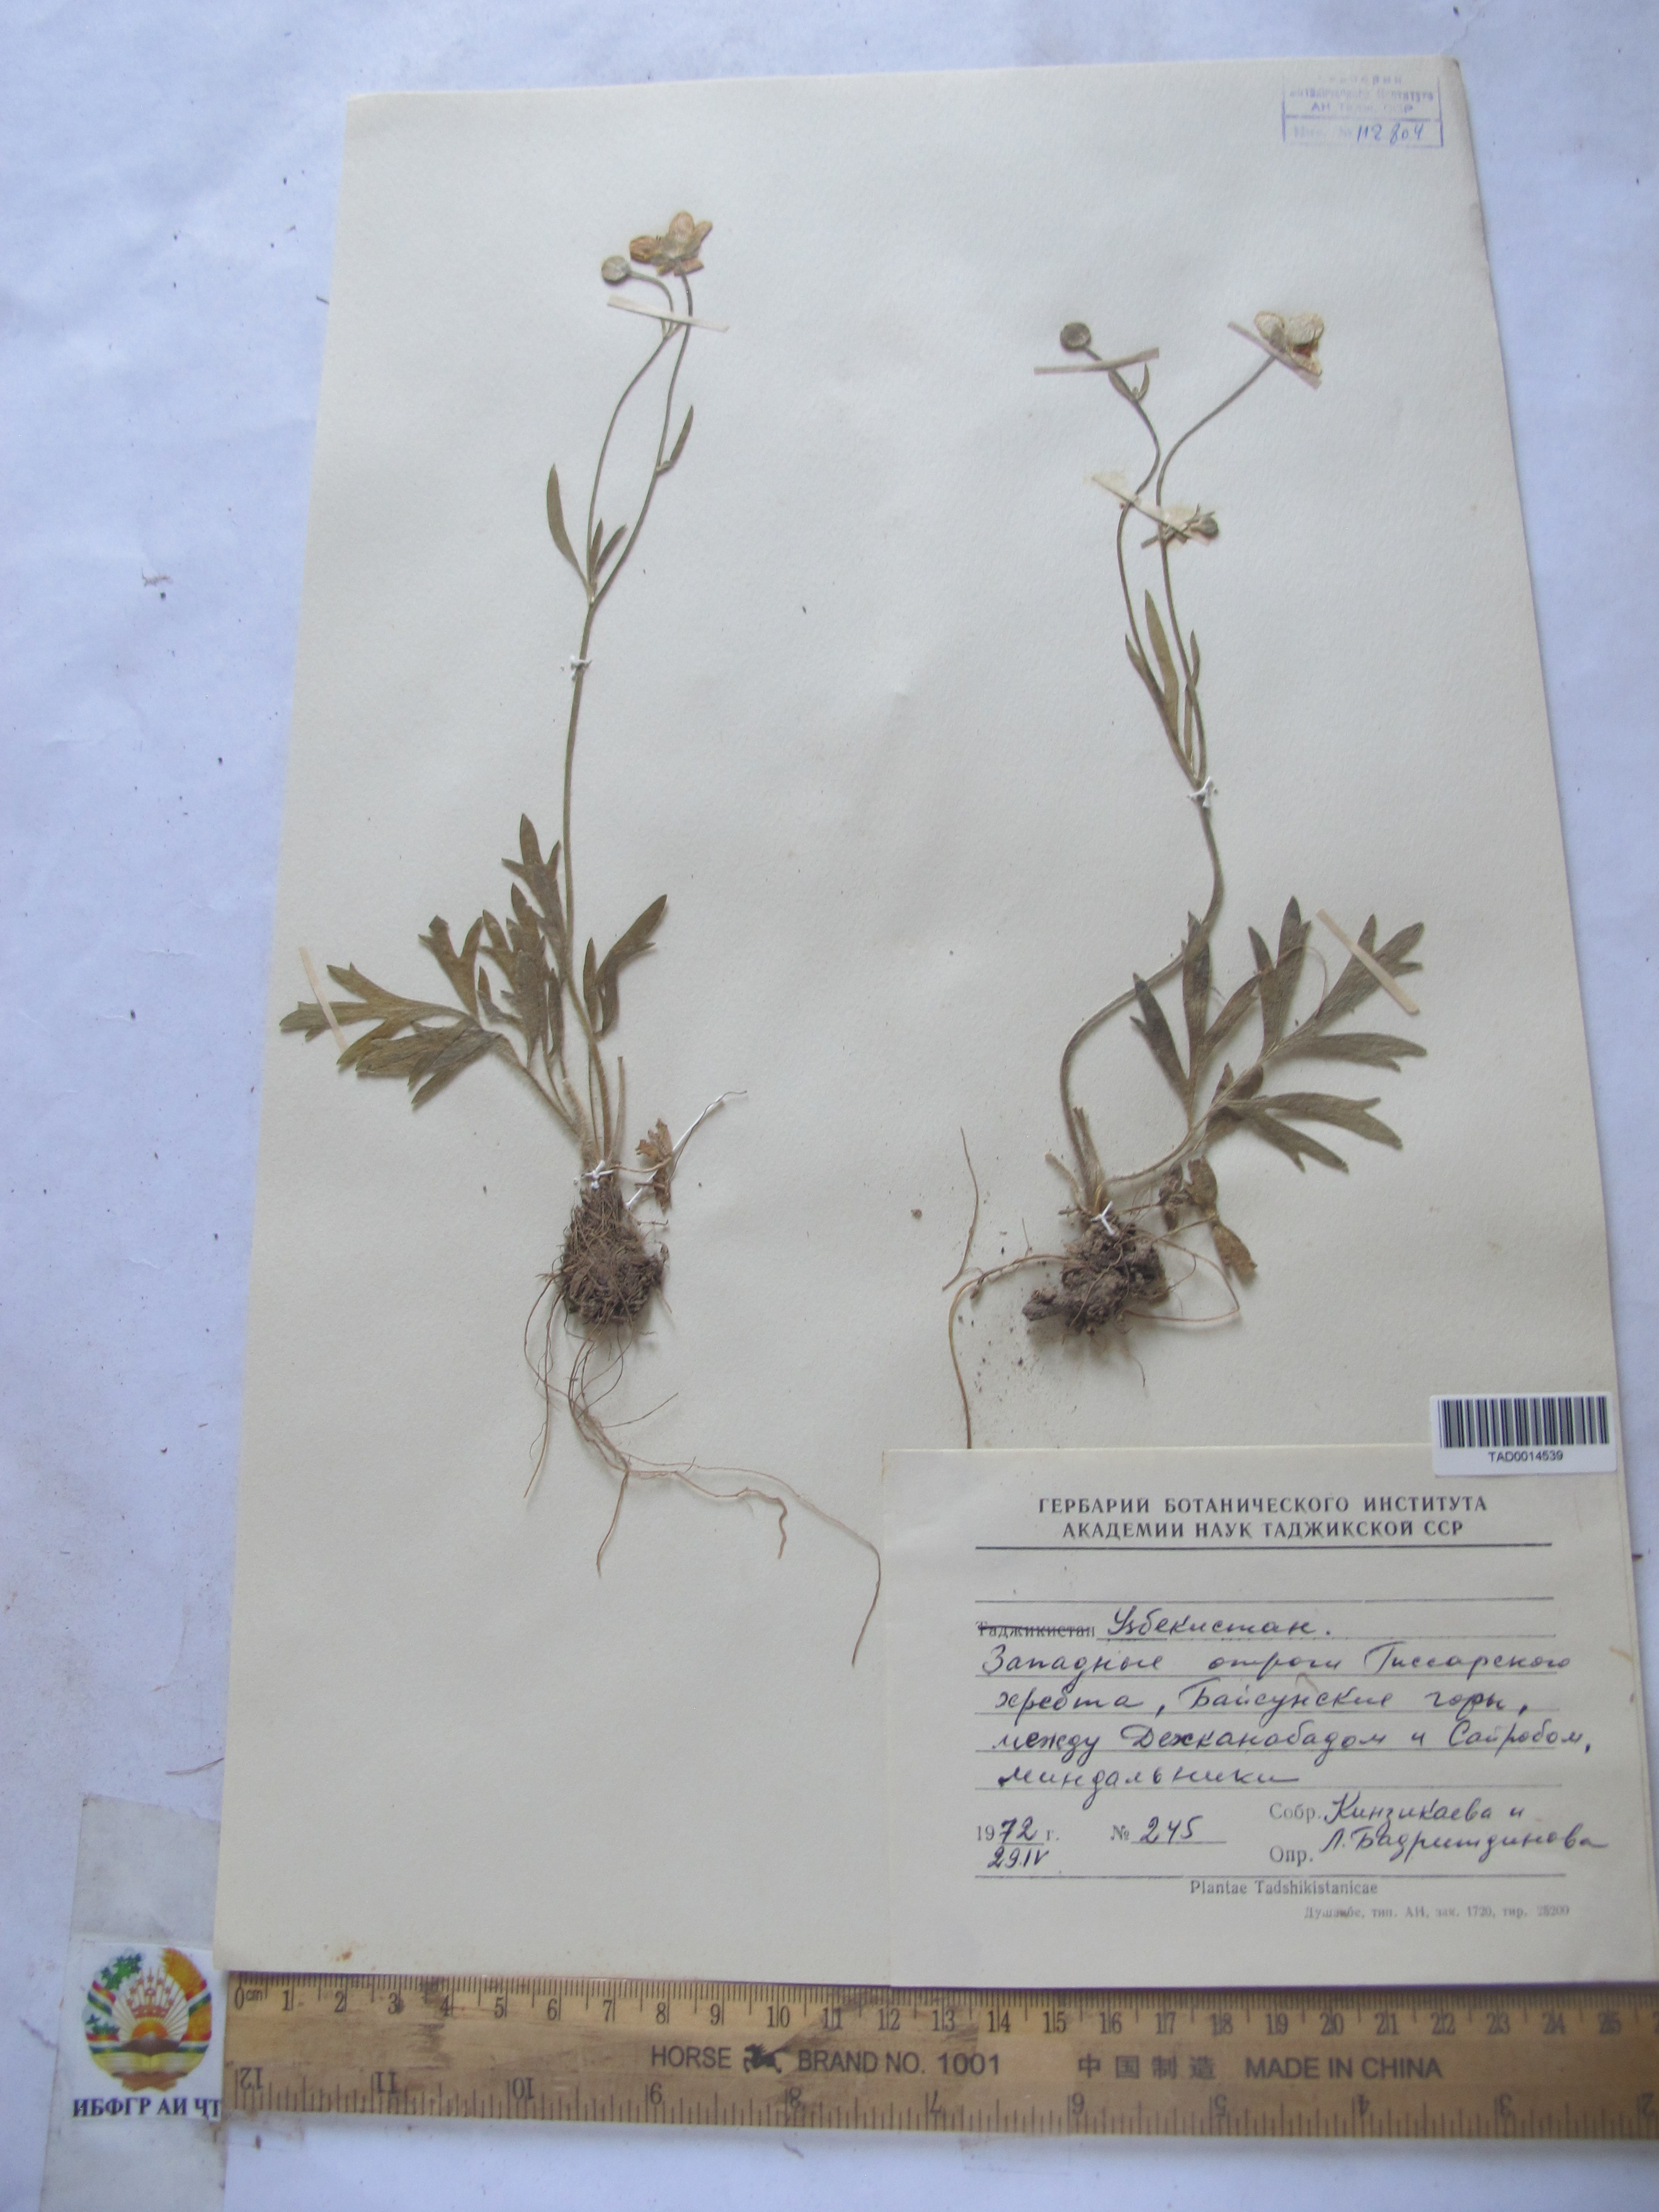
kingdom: Plantae
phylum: Tracheophyta
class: Magnoliopsida
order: Ranunculales
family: Ranunculaceae
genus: Ranunculus
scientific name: Ranunculus leptorrhynchus
